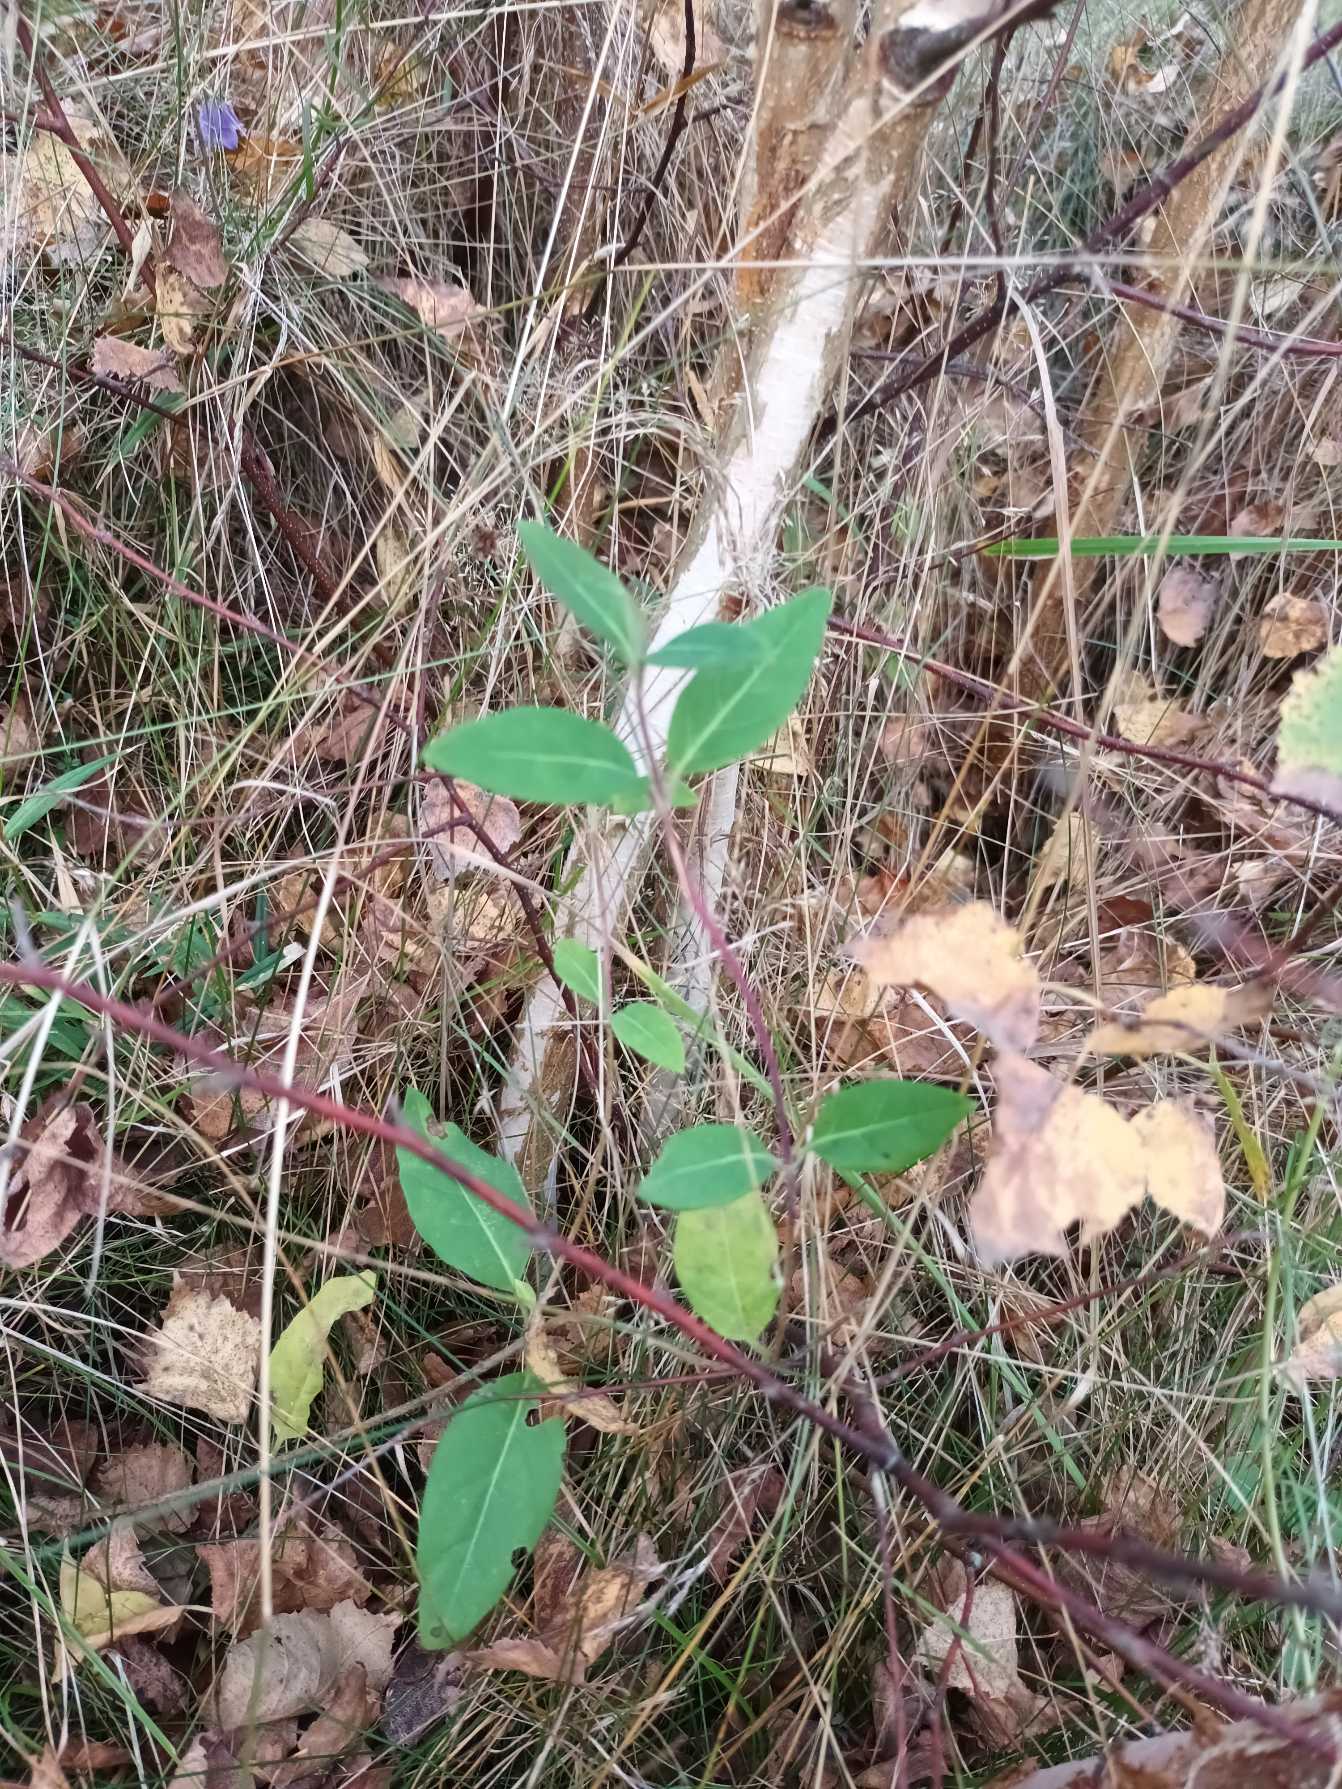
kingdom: Plantae
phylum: Tracheophyta
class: Magnoliopsida
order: Dipsacales
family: Caprifoliaceae
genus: Lonicera
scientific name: Lonicera periclymenum
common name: Almindelig gedeblad
